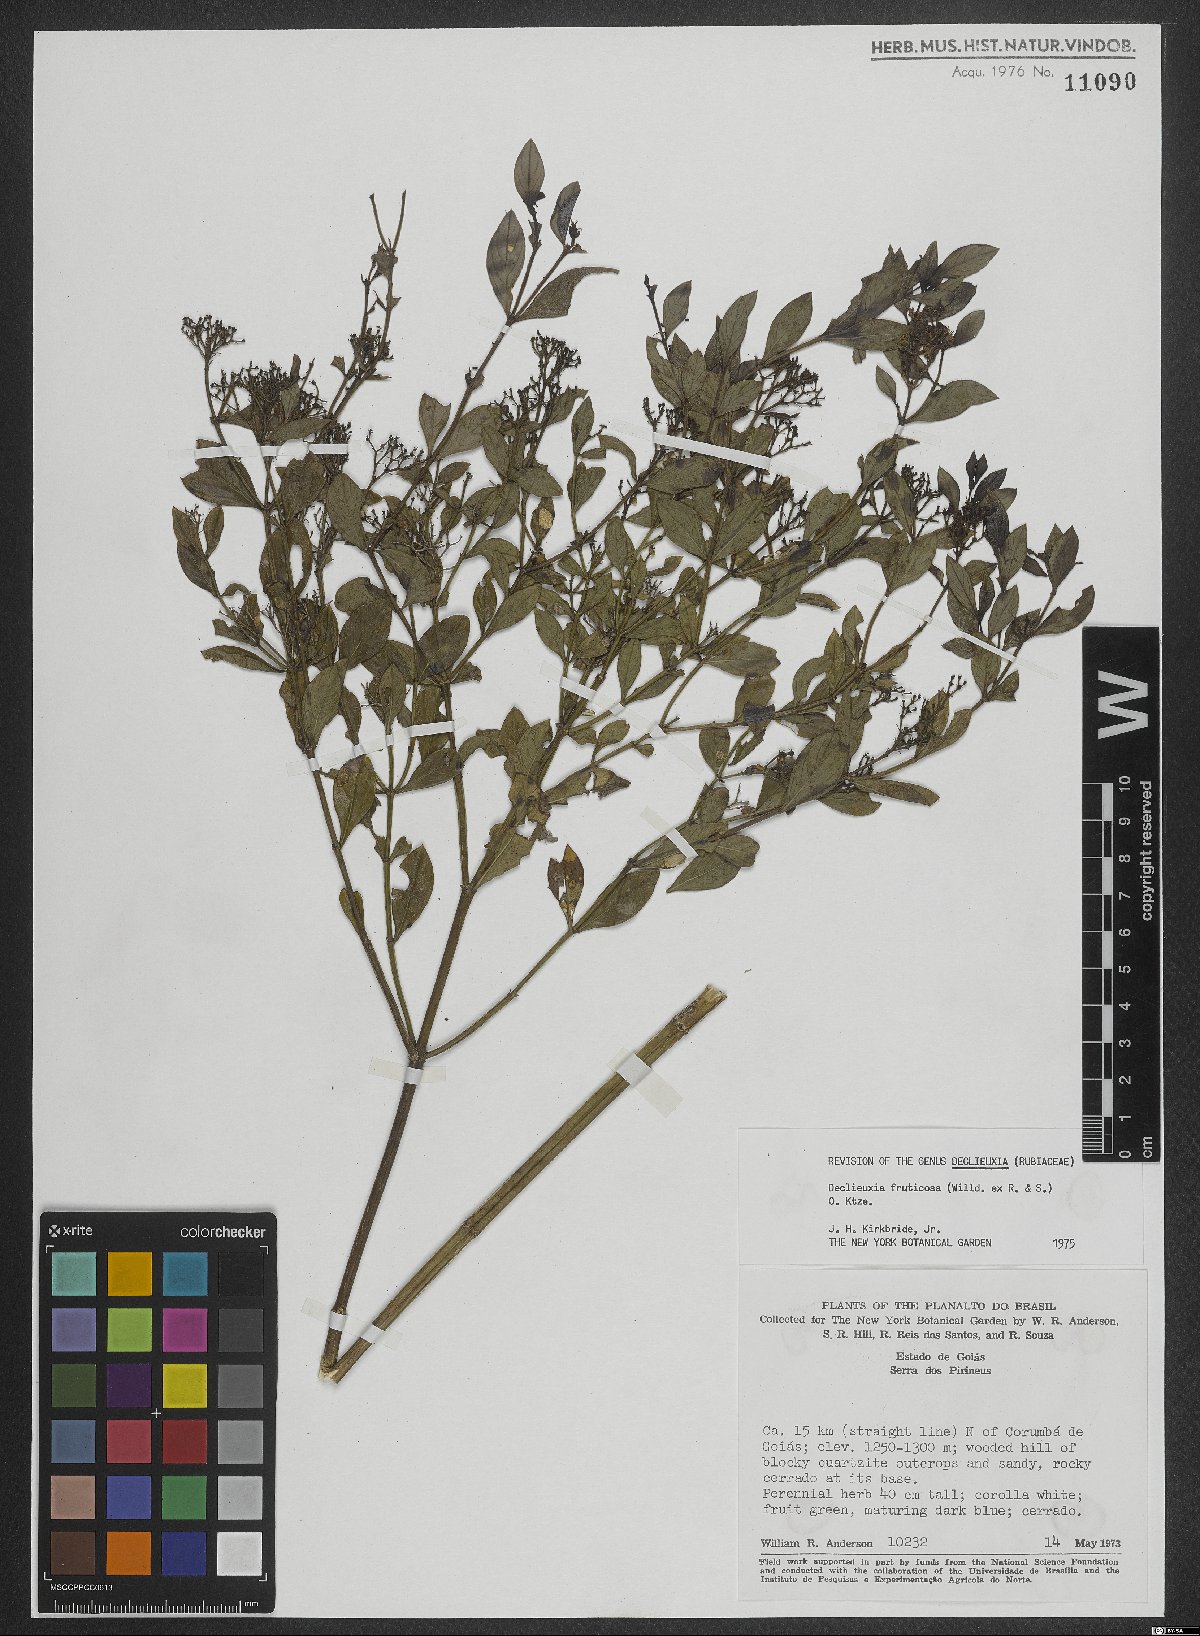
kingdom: Plantae
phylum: Tracheophyta
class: Magnoliopsida
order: Gentianales
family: Rubiaceae
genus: Declieuxia
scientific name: Declieuxia fruticosa
